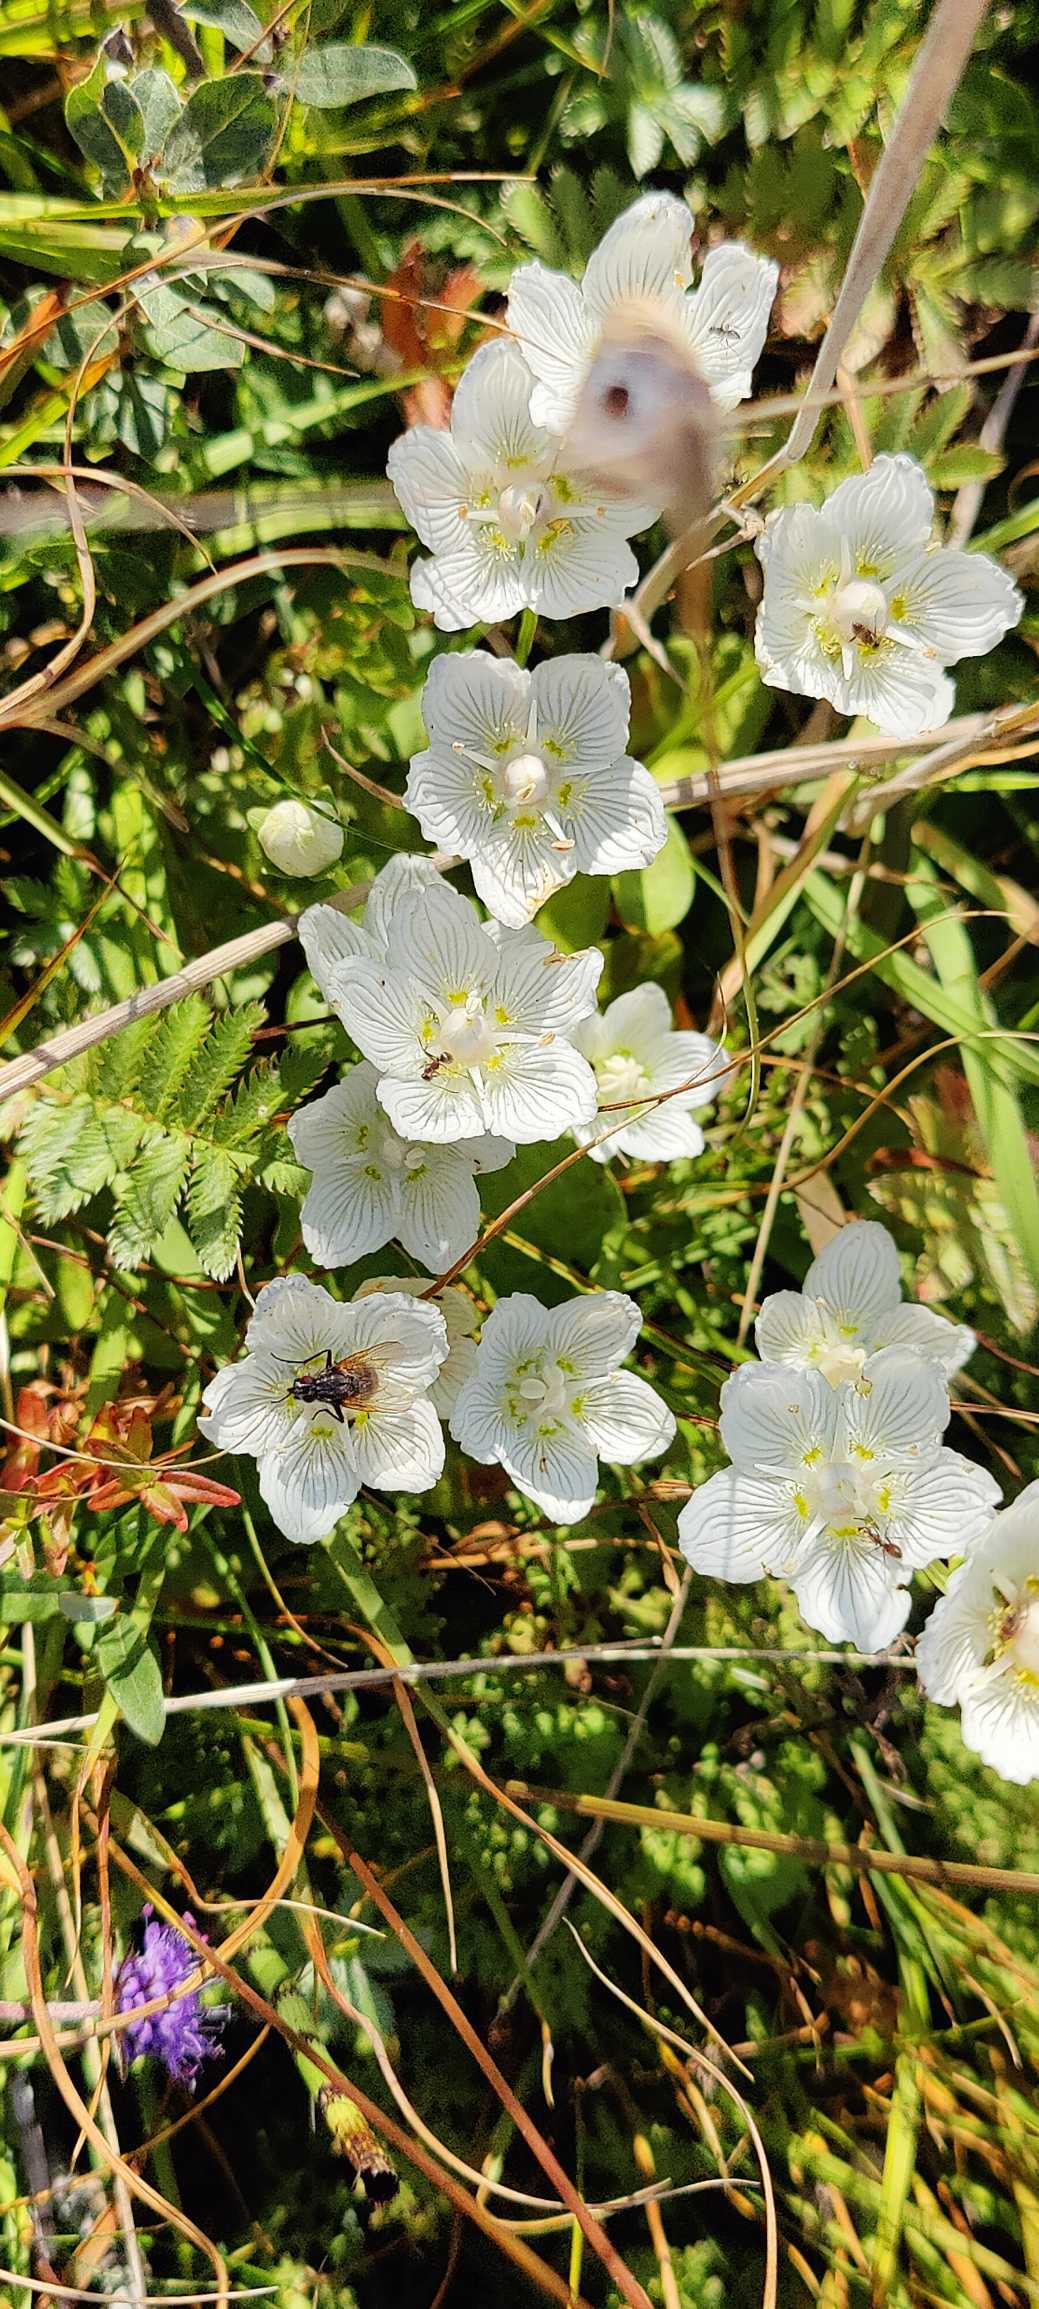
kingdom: Plantae
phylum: Tracheophyta
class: Magnoliopsida
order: Celastrales
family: Parnassiaceae
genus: Parnassia
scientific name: Parnassia palustris
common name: Leverurt
